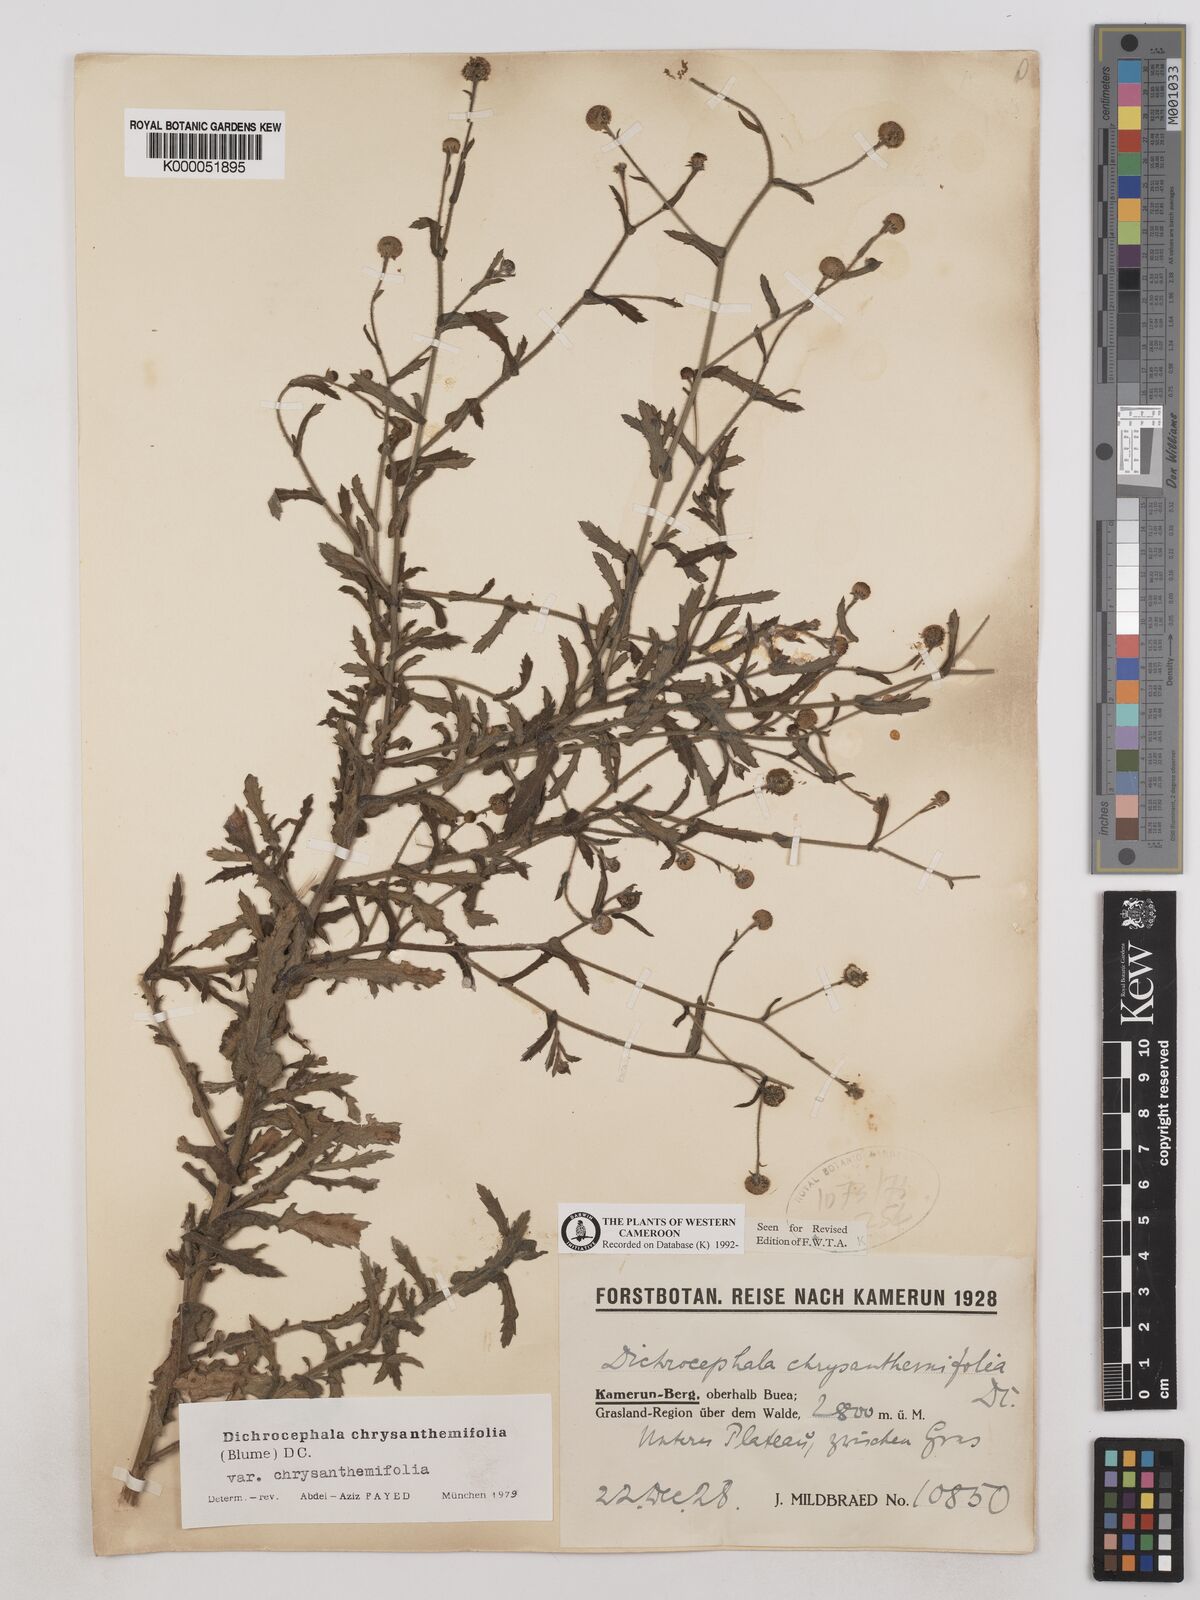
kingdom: Plantae
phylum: Tracheophyta
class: Magnoliopsida
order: Asterales
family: Asteraceae
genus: Dichrocephala
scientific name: Dichrocephala chrysanthemifolia
